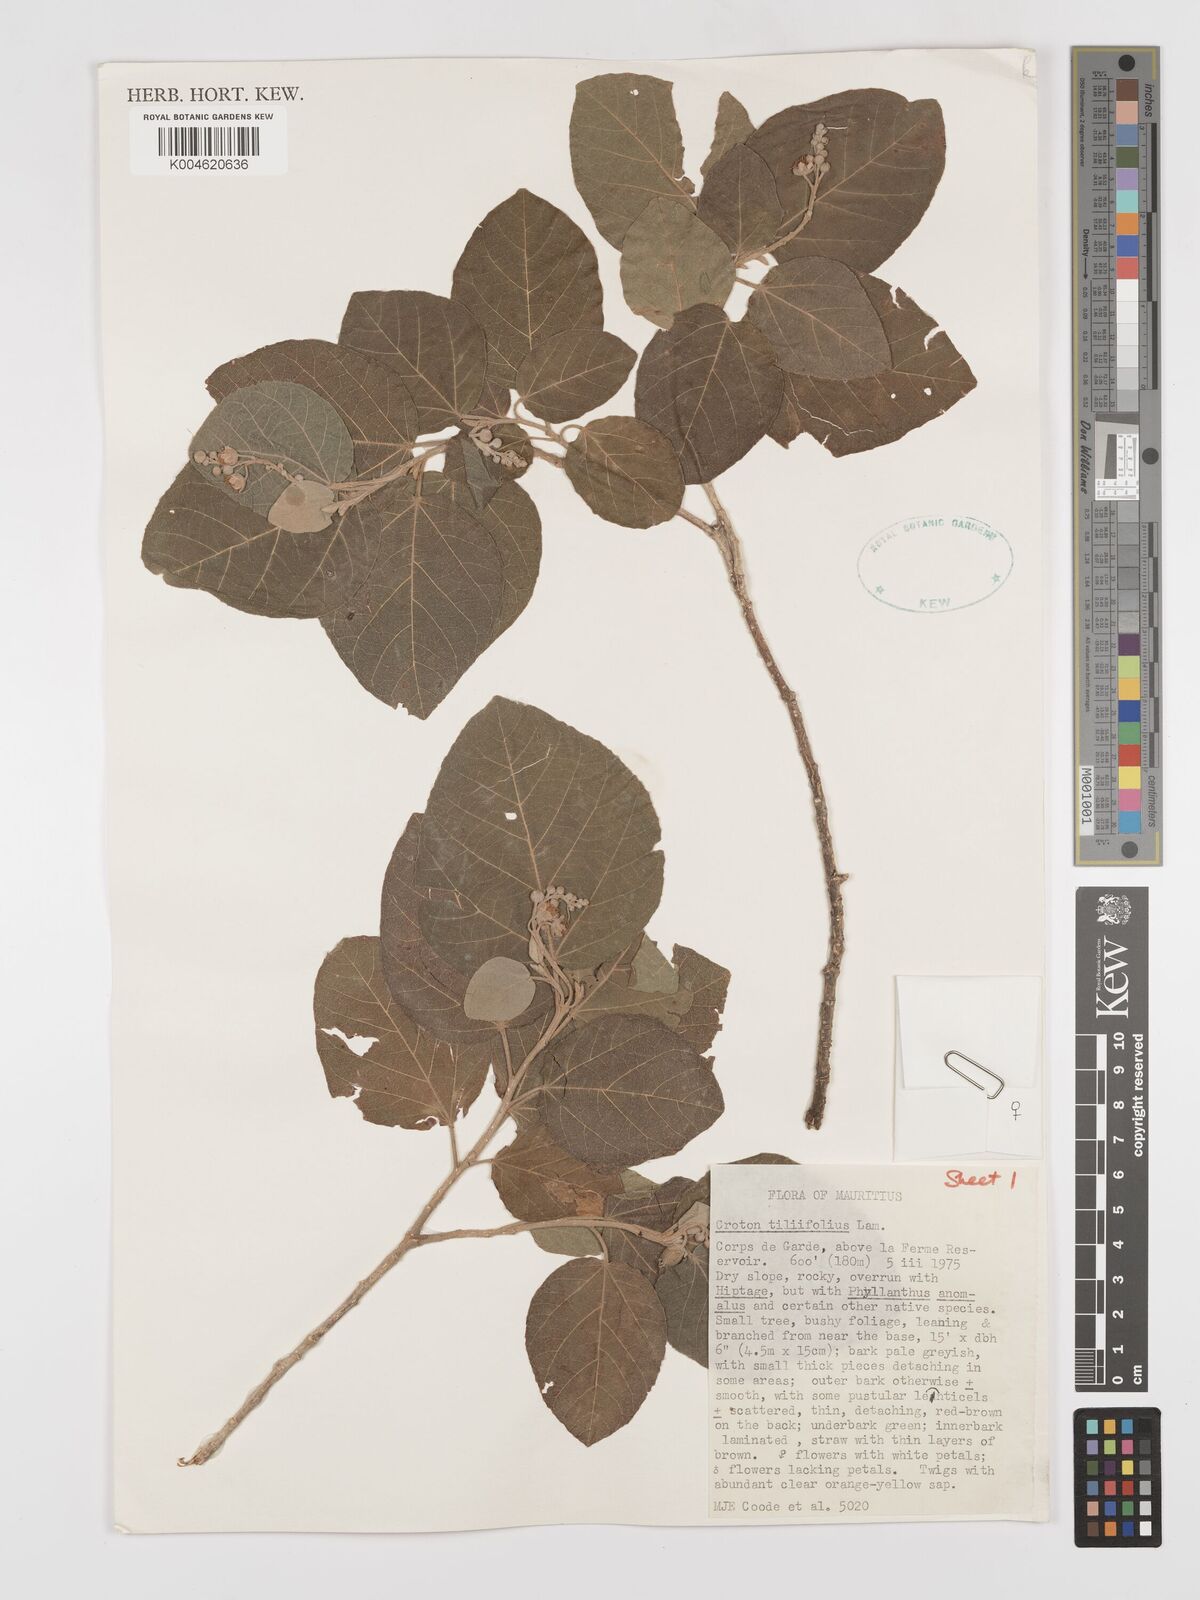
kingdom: Plantae
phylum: Tracheophyta
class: Magnoliopsida
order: Malpighiales
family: Euphorbiaceae
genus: Croton
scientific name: Croton
